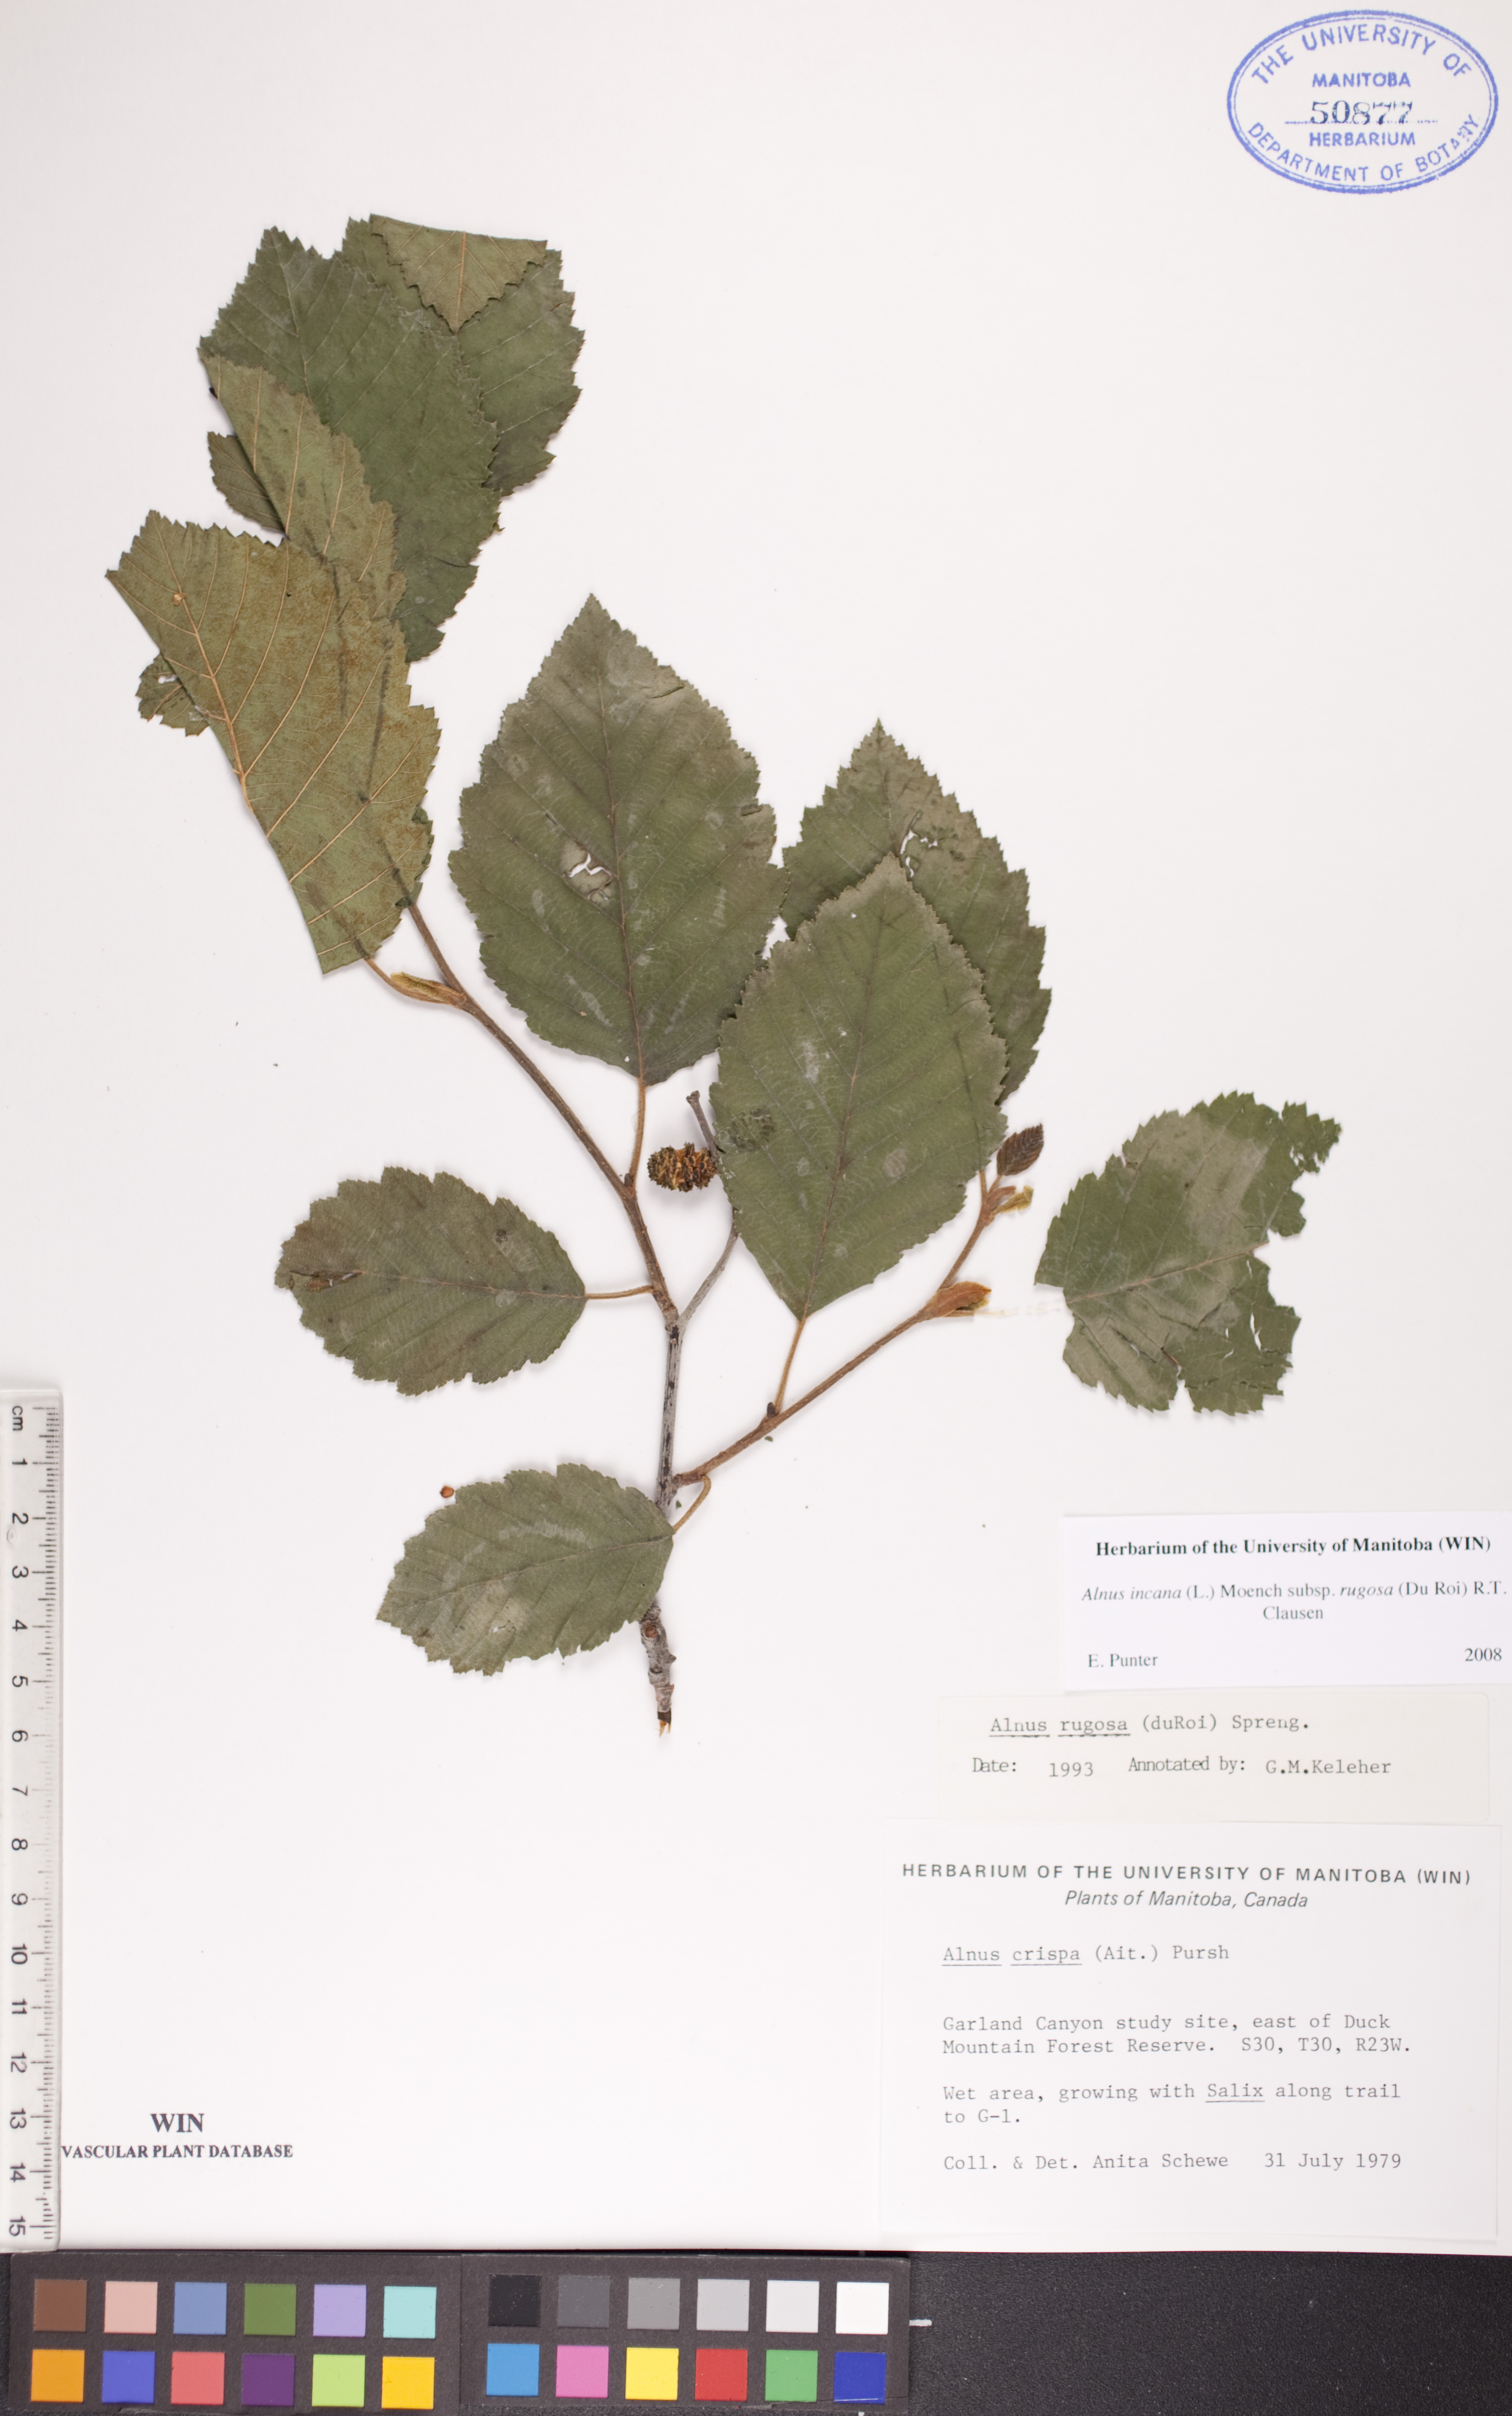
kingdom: Plantae
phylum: Tracheophyta
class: Magnoliopsida
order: Fagales
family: Betulaceae
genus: Alnus
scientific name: Alnus incana
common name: Grey alder
